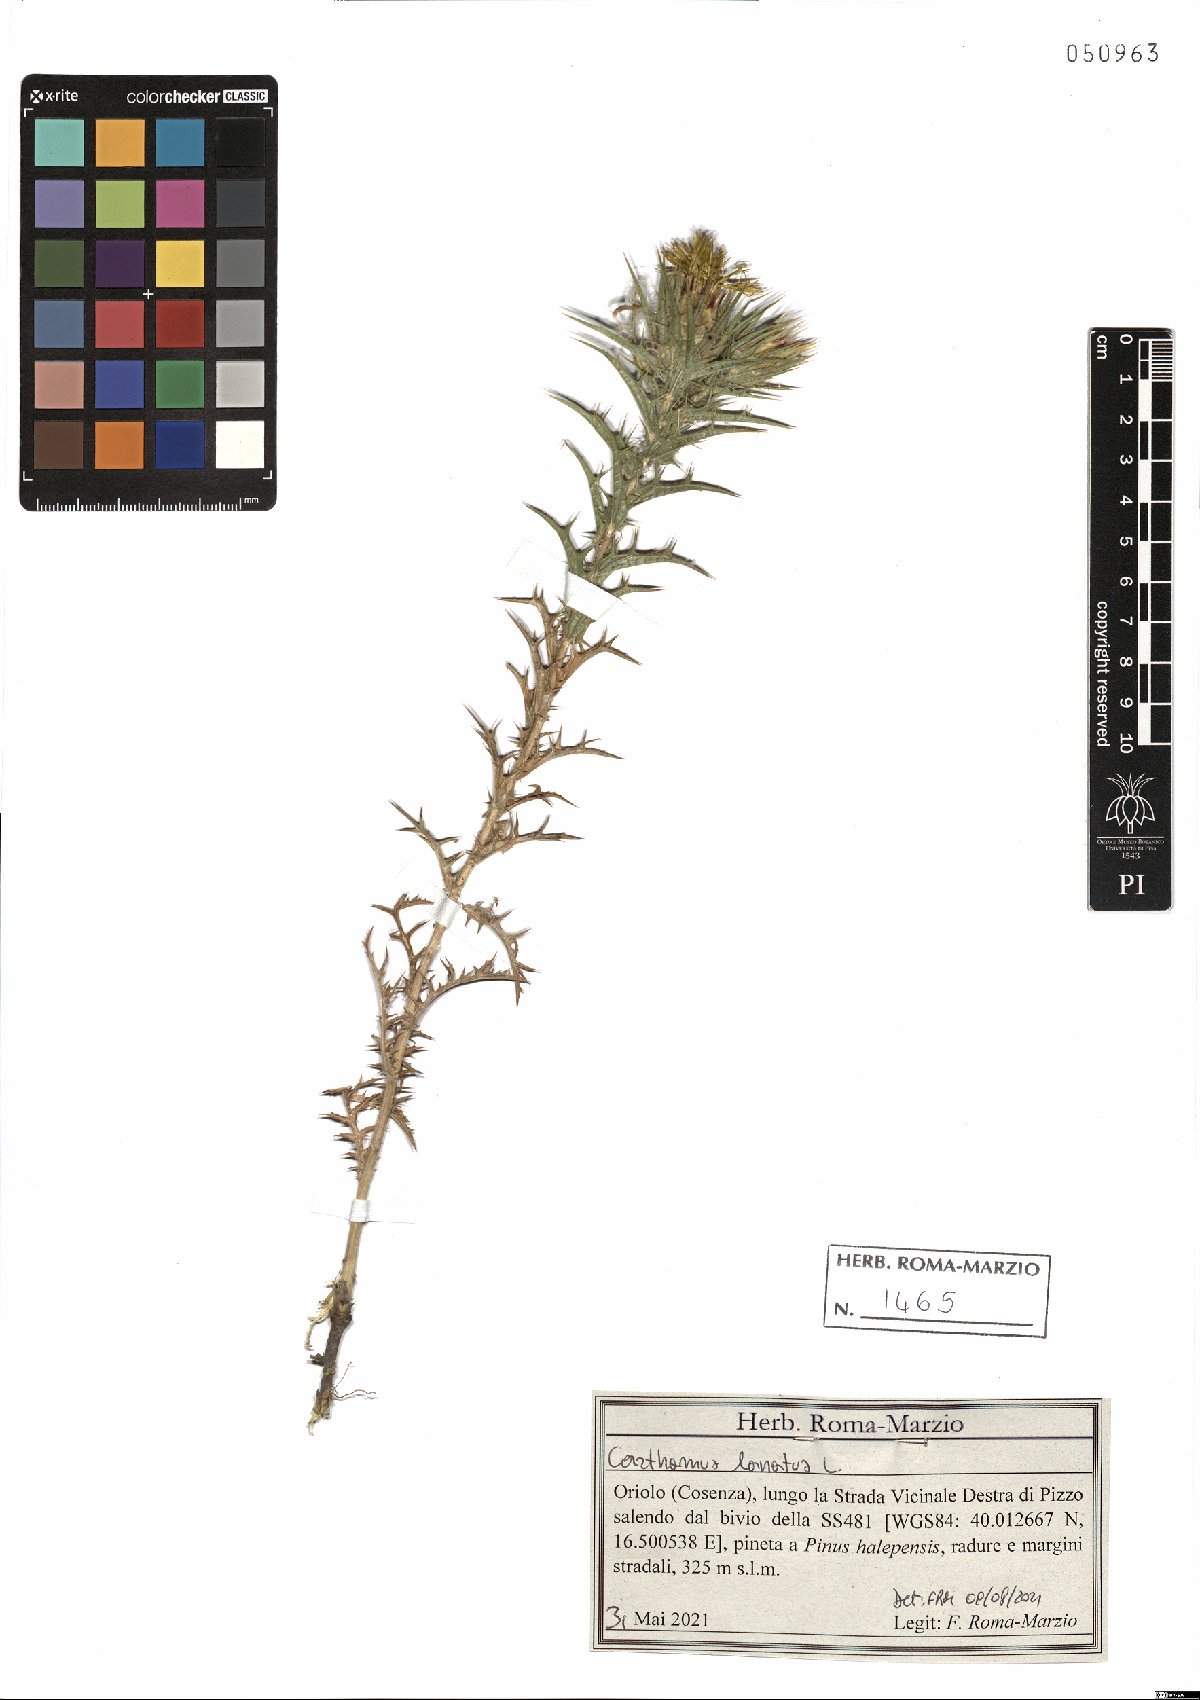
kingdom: Plantae
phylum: Tracheophyta
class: Magnoliopsida
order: Asterales
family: Asteraceae
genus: Carthamus
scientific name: Carthamus lanatus
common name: Downy safflower
